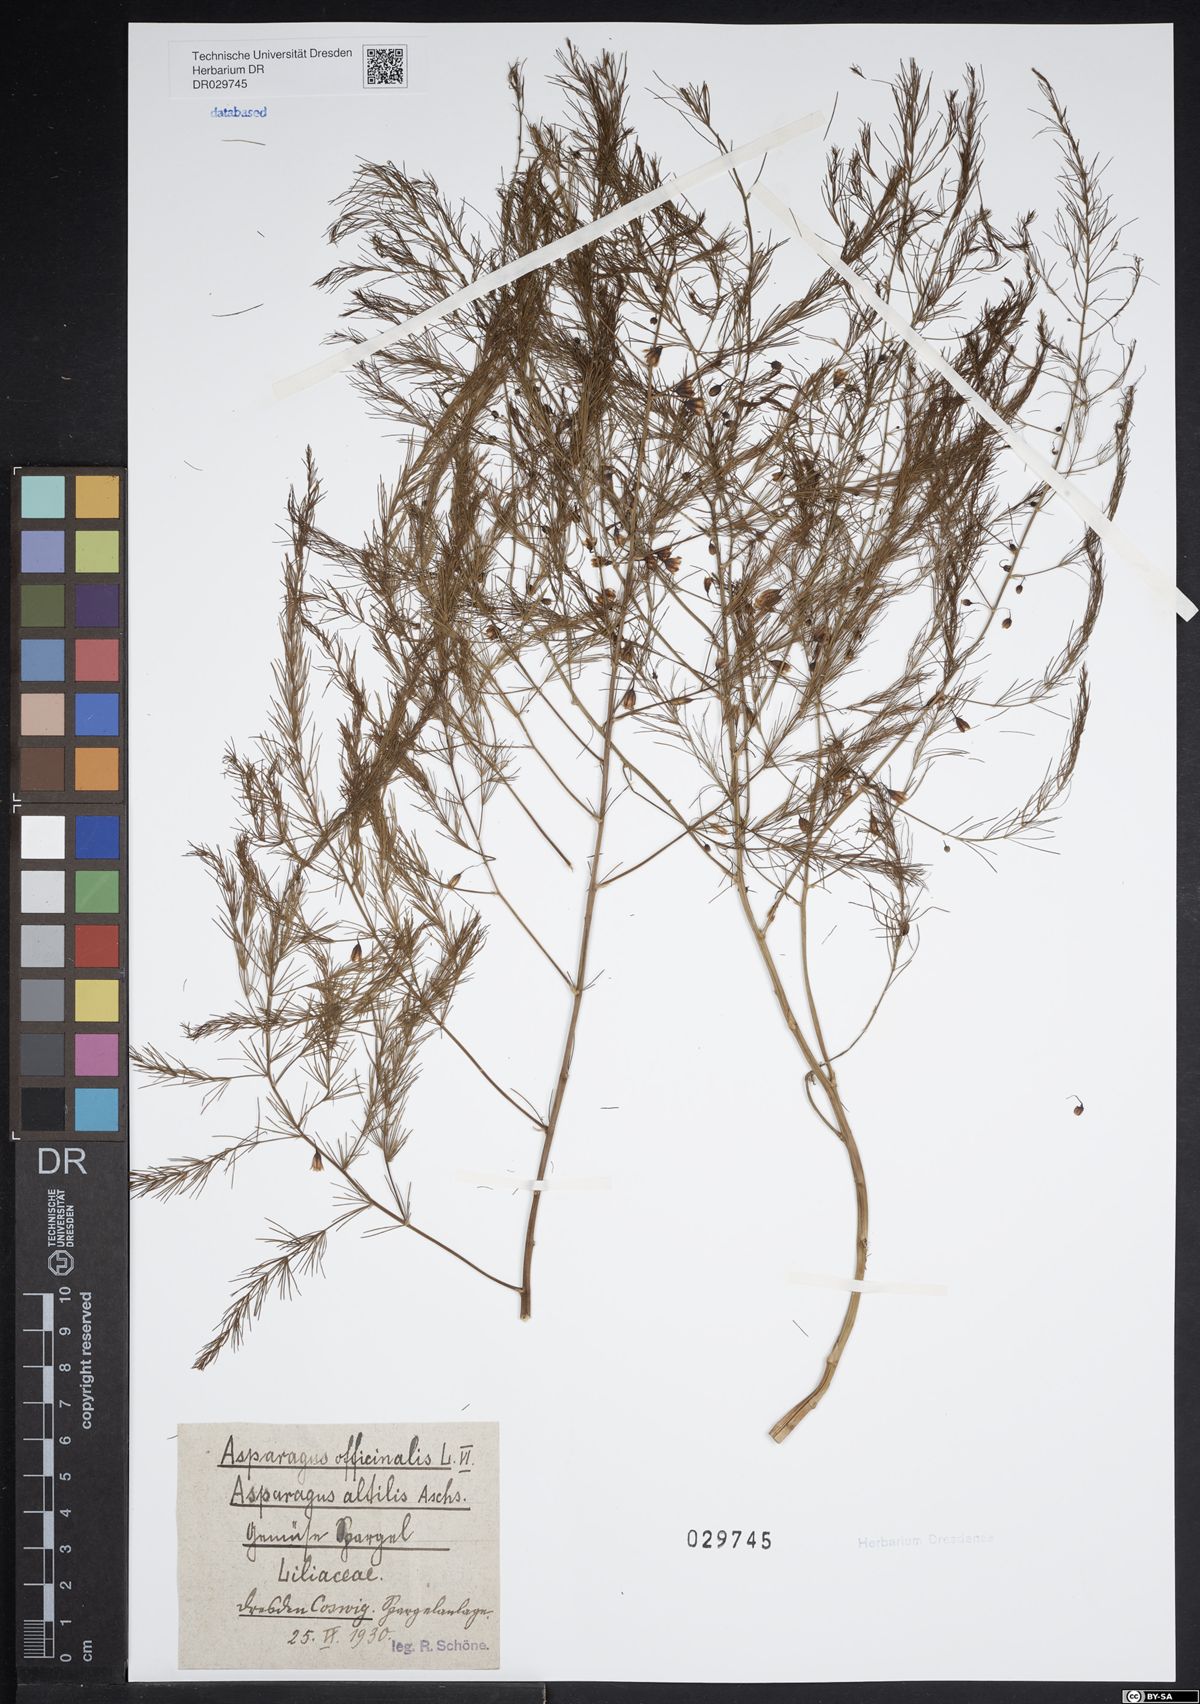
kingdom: Plantae
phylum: Tracheophyta
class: Liliopsida
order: Asparagales
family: Asparagaceae
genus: Asparagus
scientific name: Asparagus officinalis
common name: Garden asparagus
